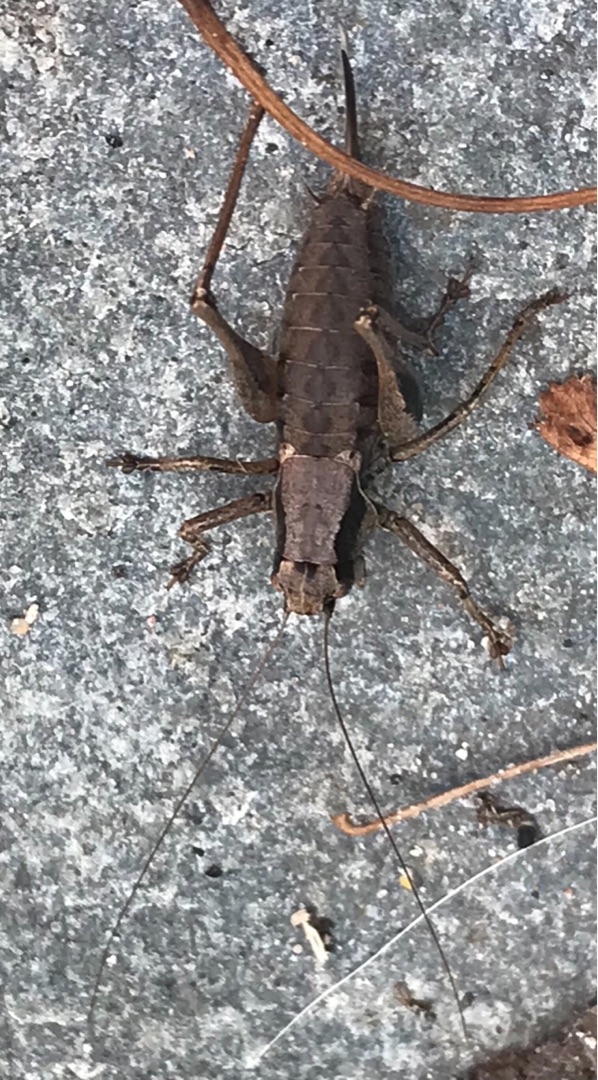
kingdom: Animalia
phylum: Arthropoda
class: Insecta
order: Orthoptera
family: Tettigoniidae
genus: Pholidoptera
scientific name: Pholidoptera griseoaptera
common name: Buskgræshoppe
